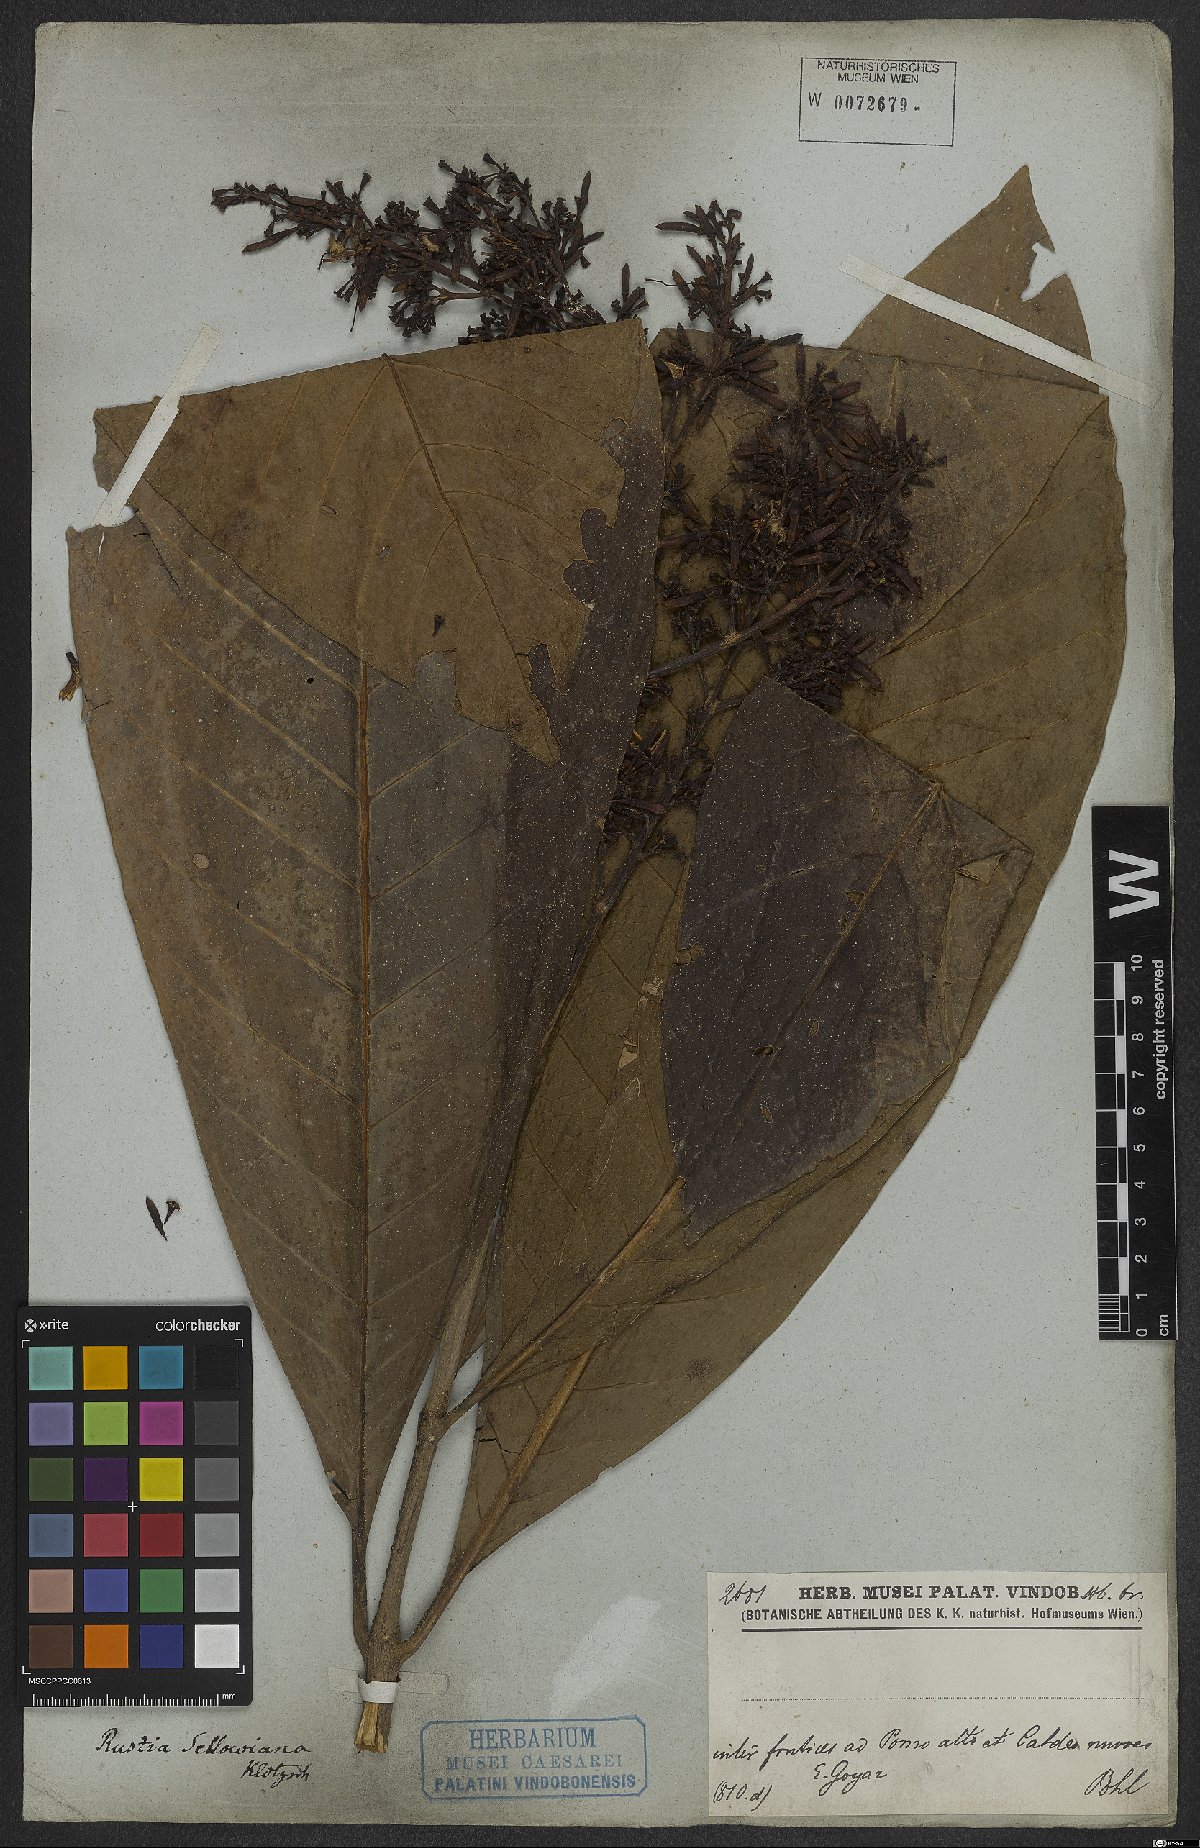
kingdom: Plantae
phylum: Tracheophyta
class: Magnoliopsida
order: Gentianales
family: Rubiaceae
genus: Rustia
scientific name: Rustia formosa
